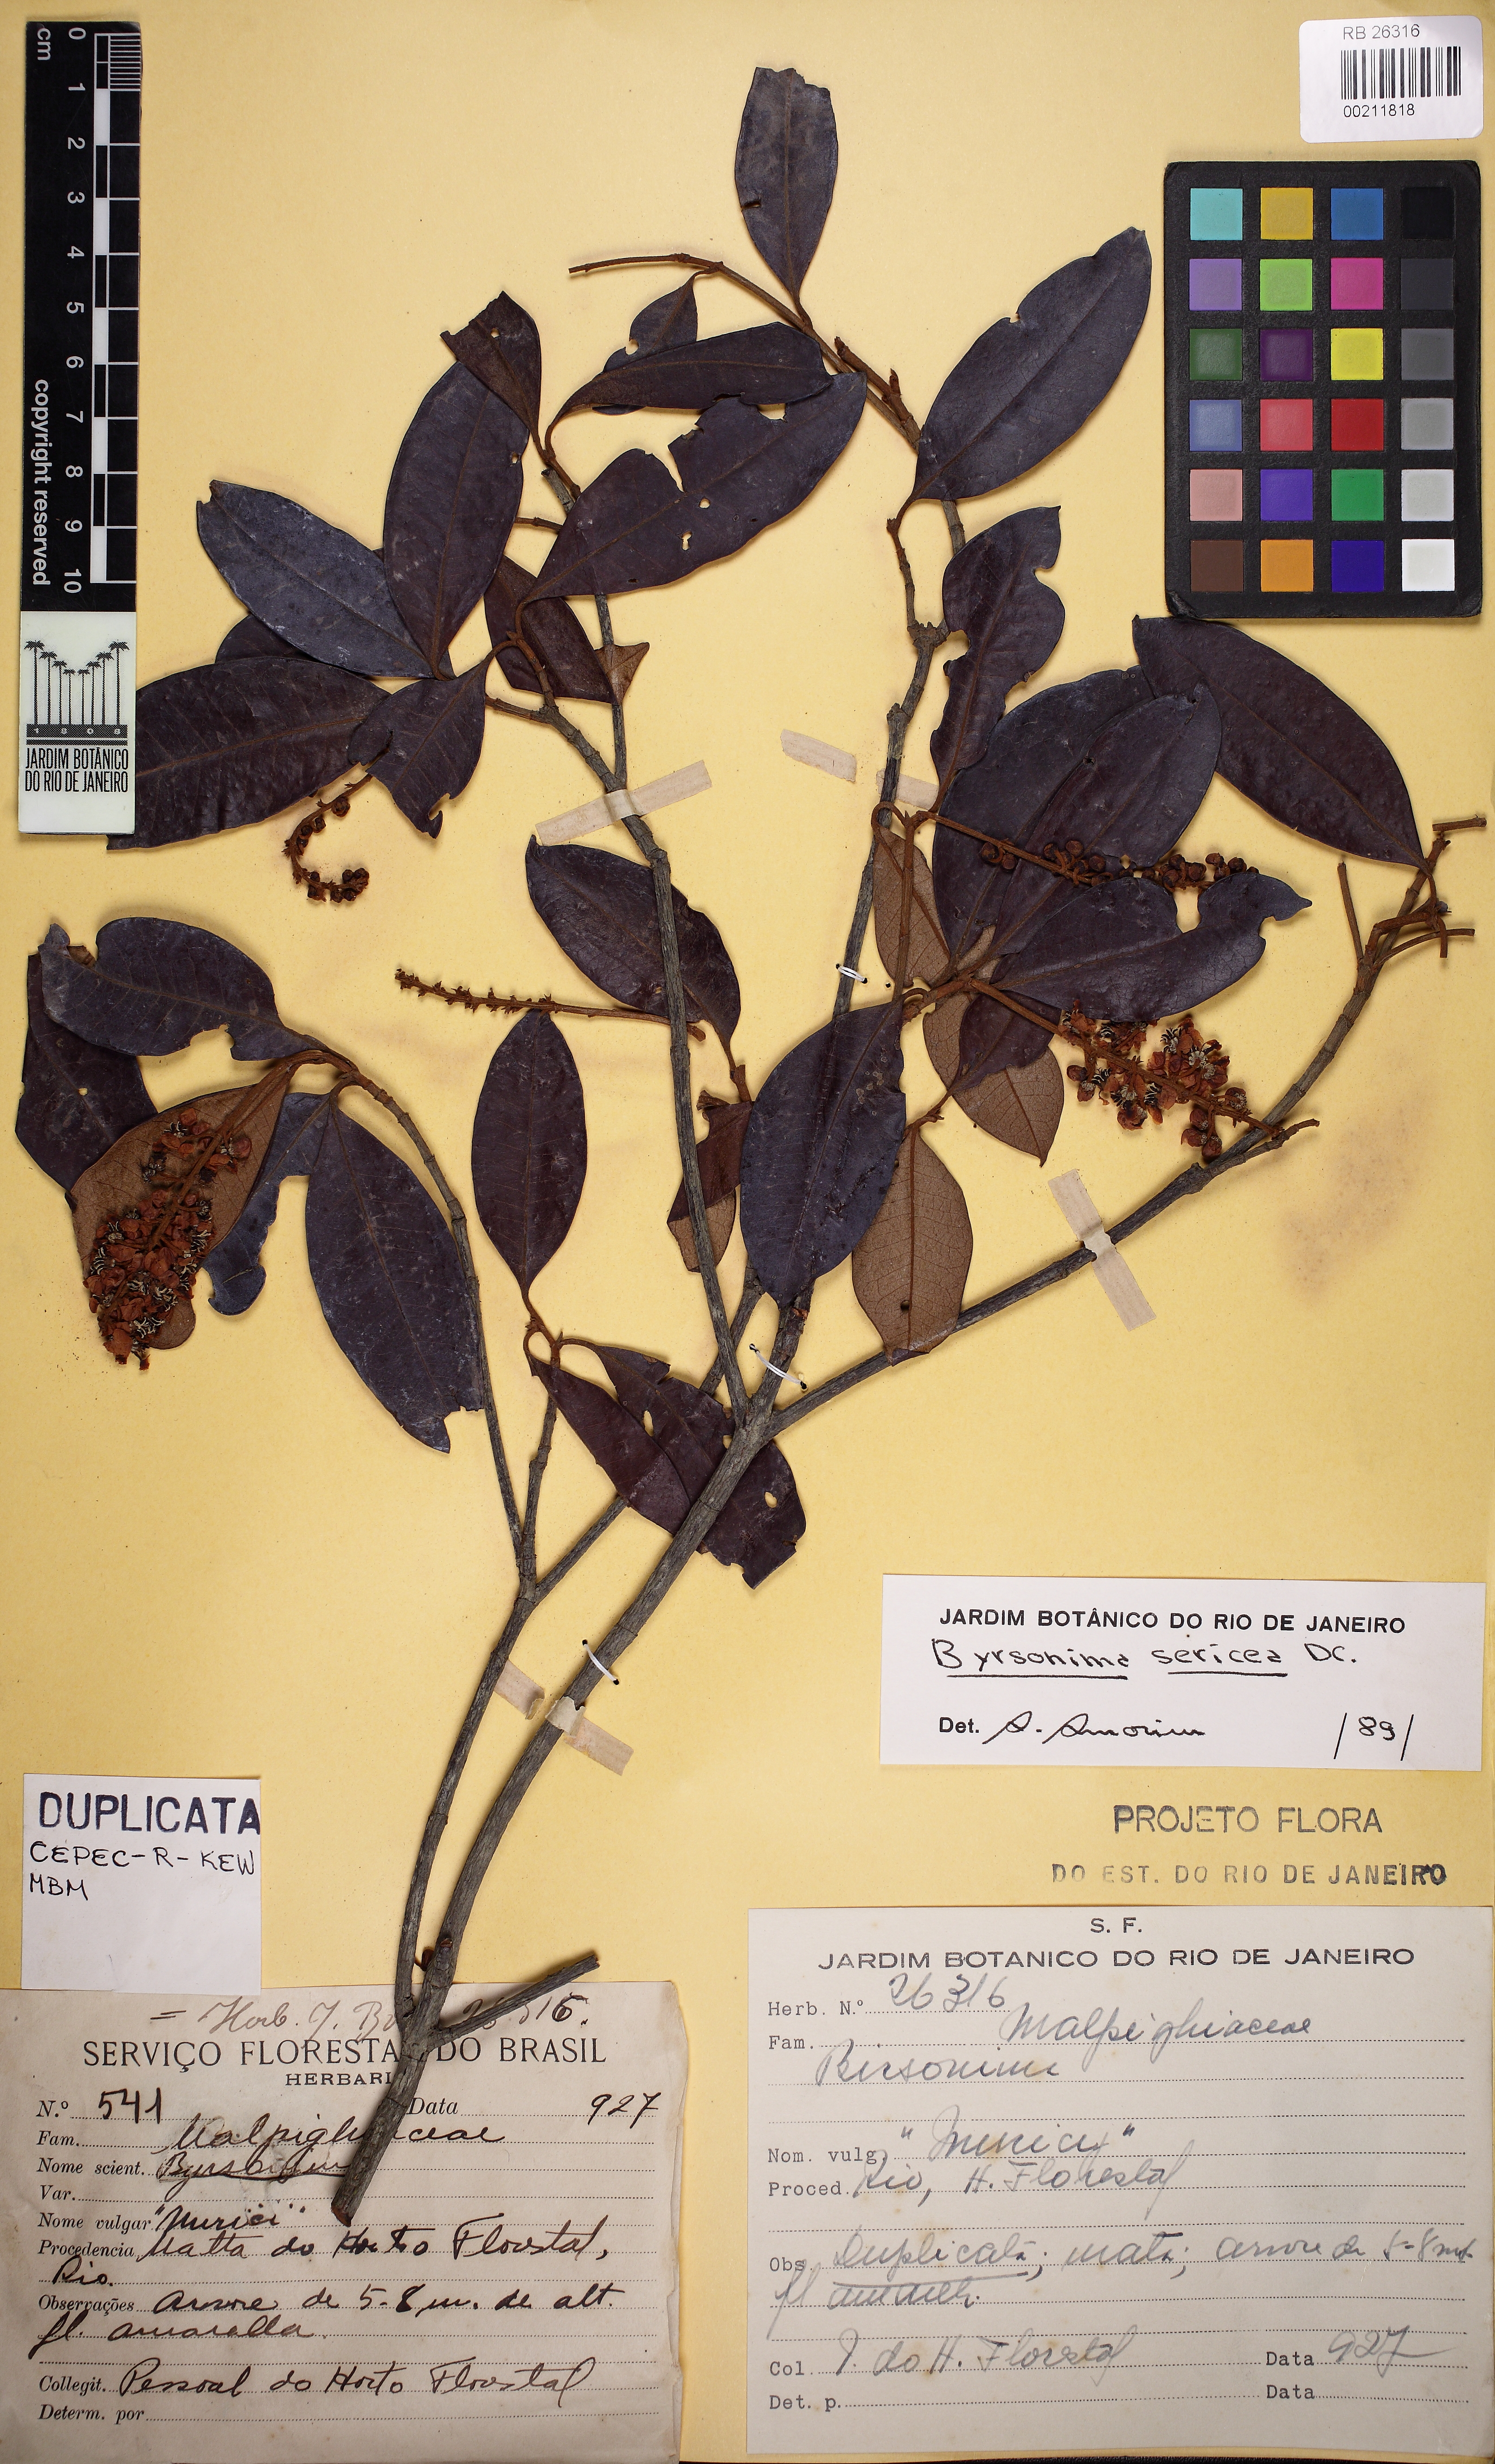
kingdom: Plantae
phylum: Tracheophyta
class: Magnoliopsida
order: Malpighiales
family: Malpighiaceae
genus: Byrsonima
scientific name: Byrsonima sericea
